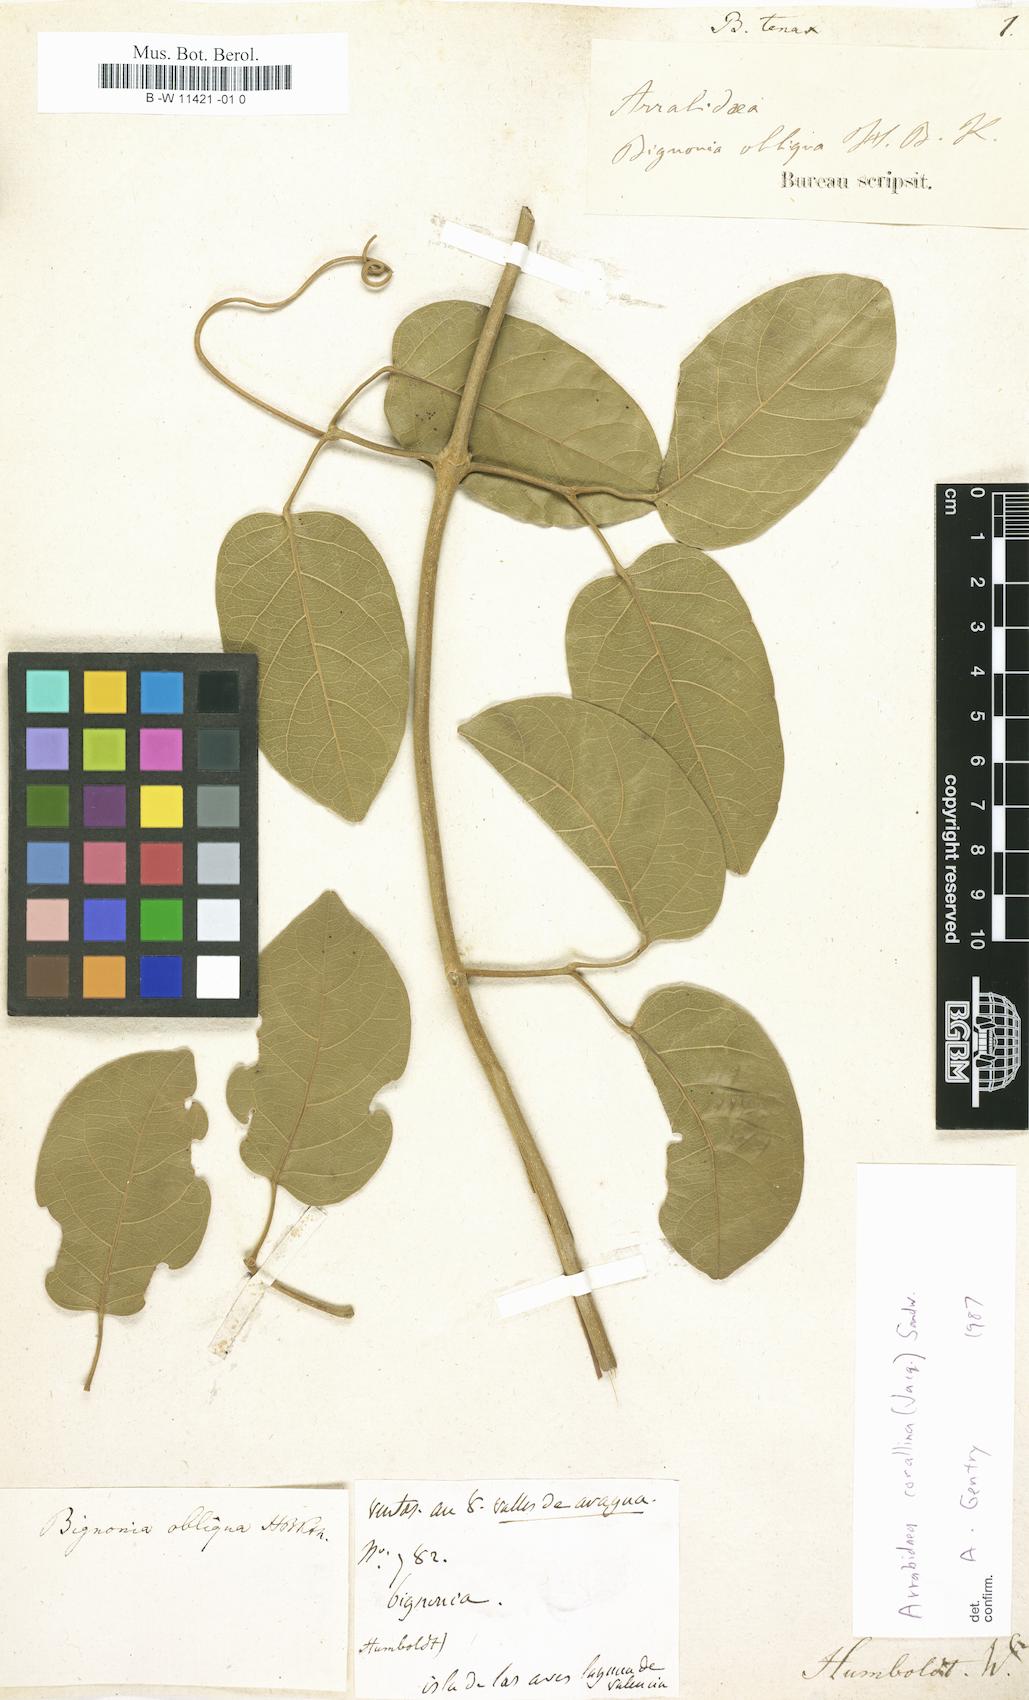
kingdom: Plantae
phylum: Tracheophyta
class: Magnoliopsida
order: Lamiales
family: Bignoniaceae
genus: Bignonia
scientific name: Bignonia
